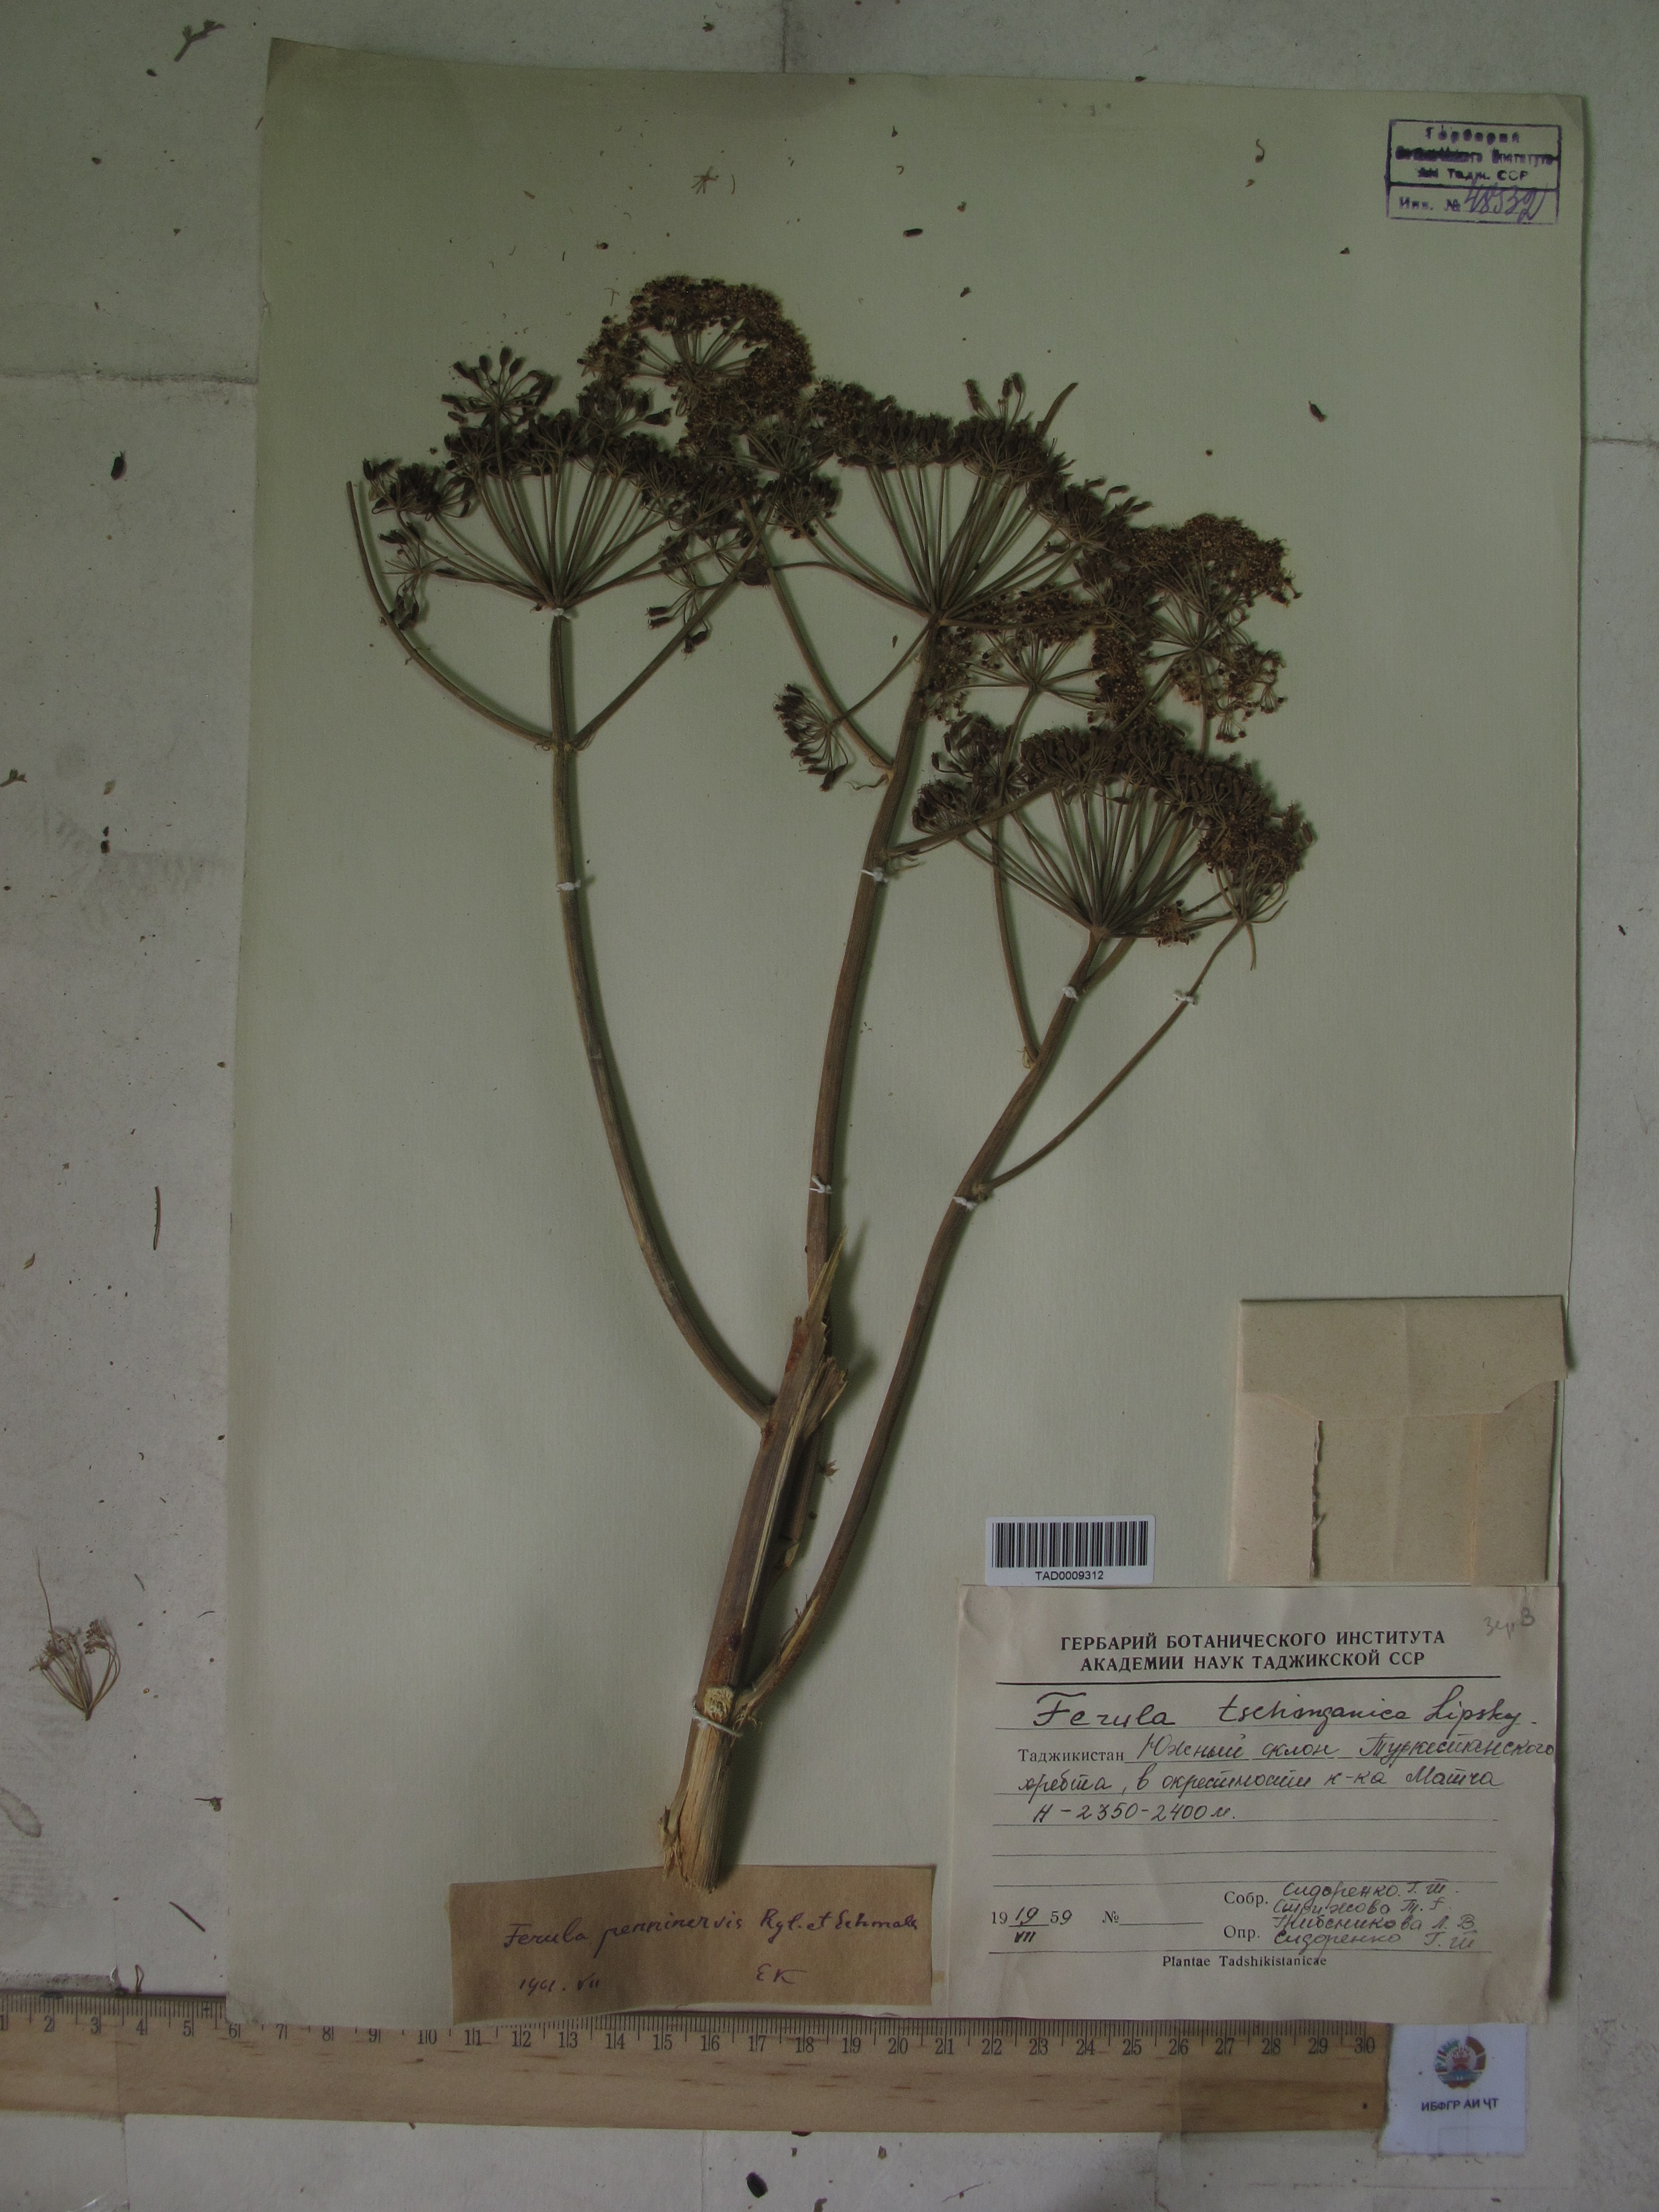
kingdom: Plantae
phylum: Tracheophyta
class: Magnoliopsida
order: Apiales
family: Apiaceae
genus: Ferula
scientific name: Ferula tschimganica
